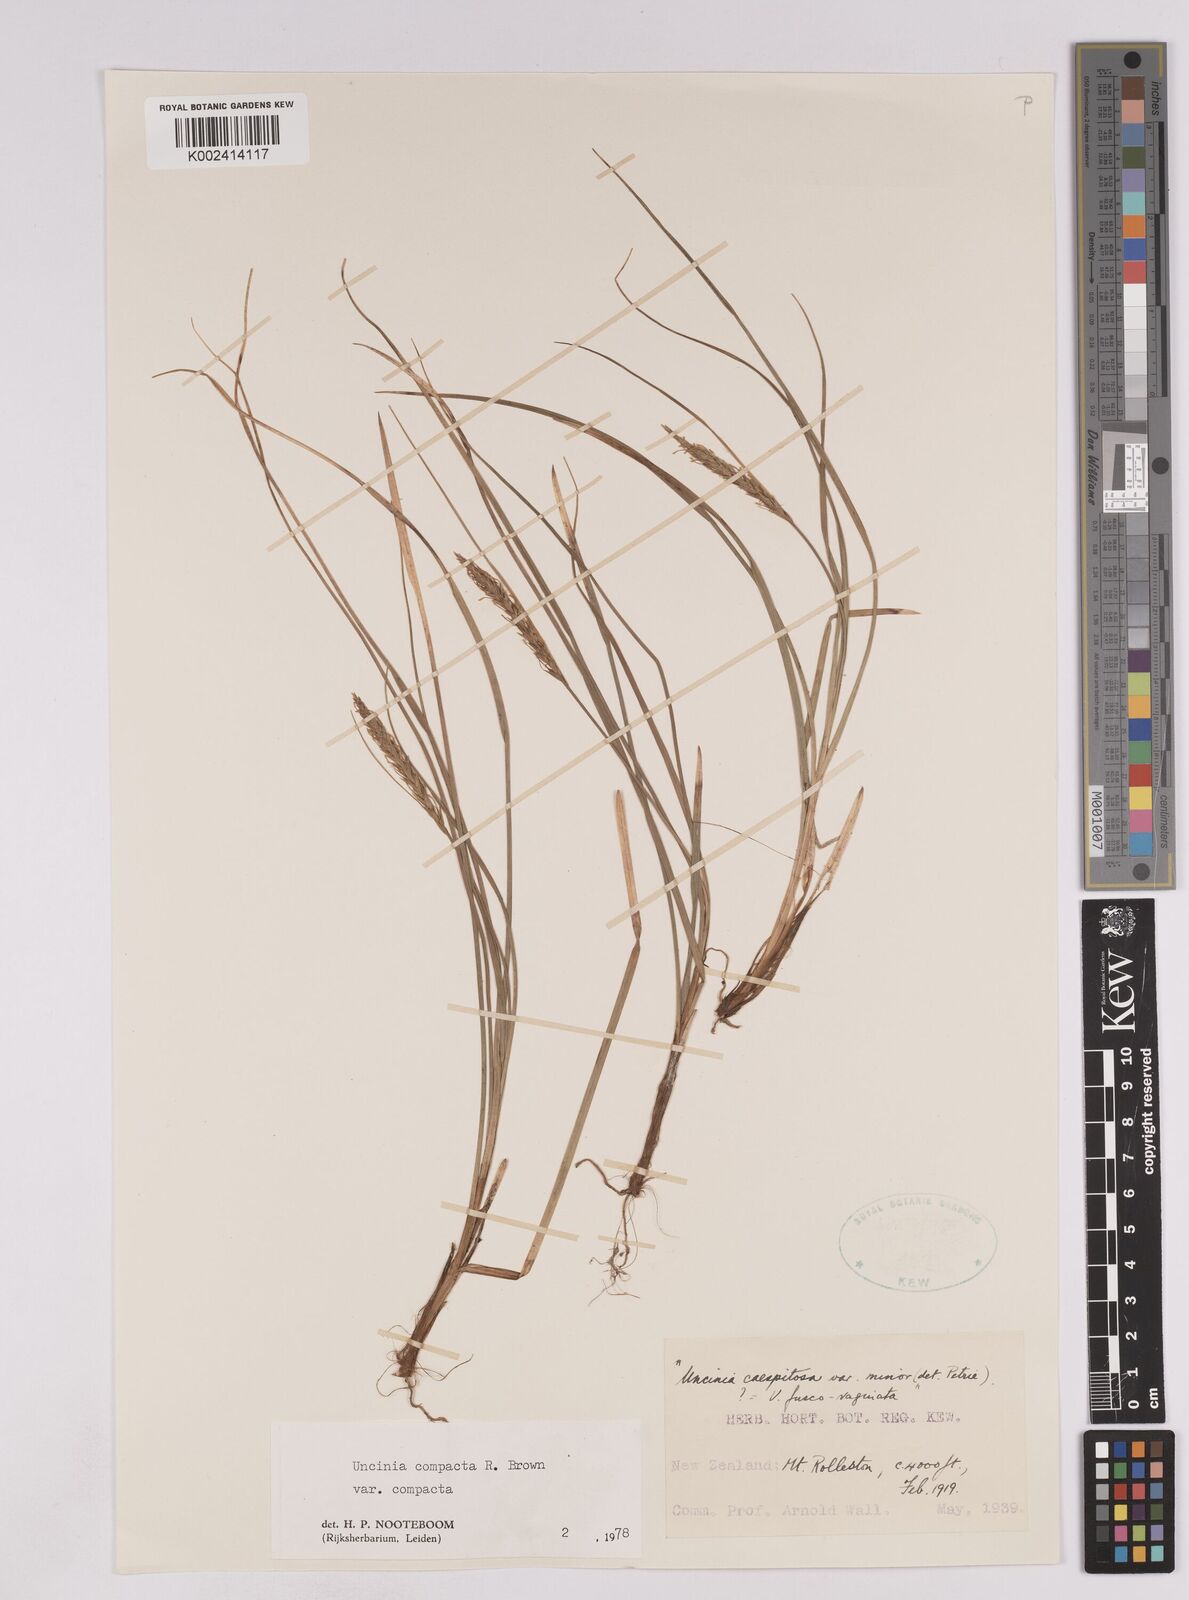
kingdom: Plantae
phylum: Tracheophyta
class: Liliopsida
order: Poales
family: Cyperaceae
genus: Carex
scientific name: Carex austrocompacta
